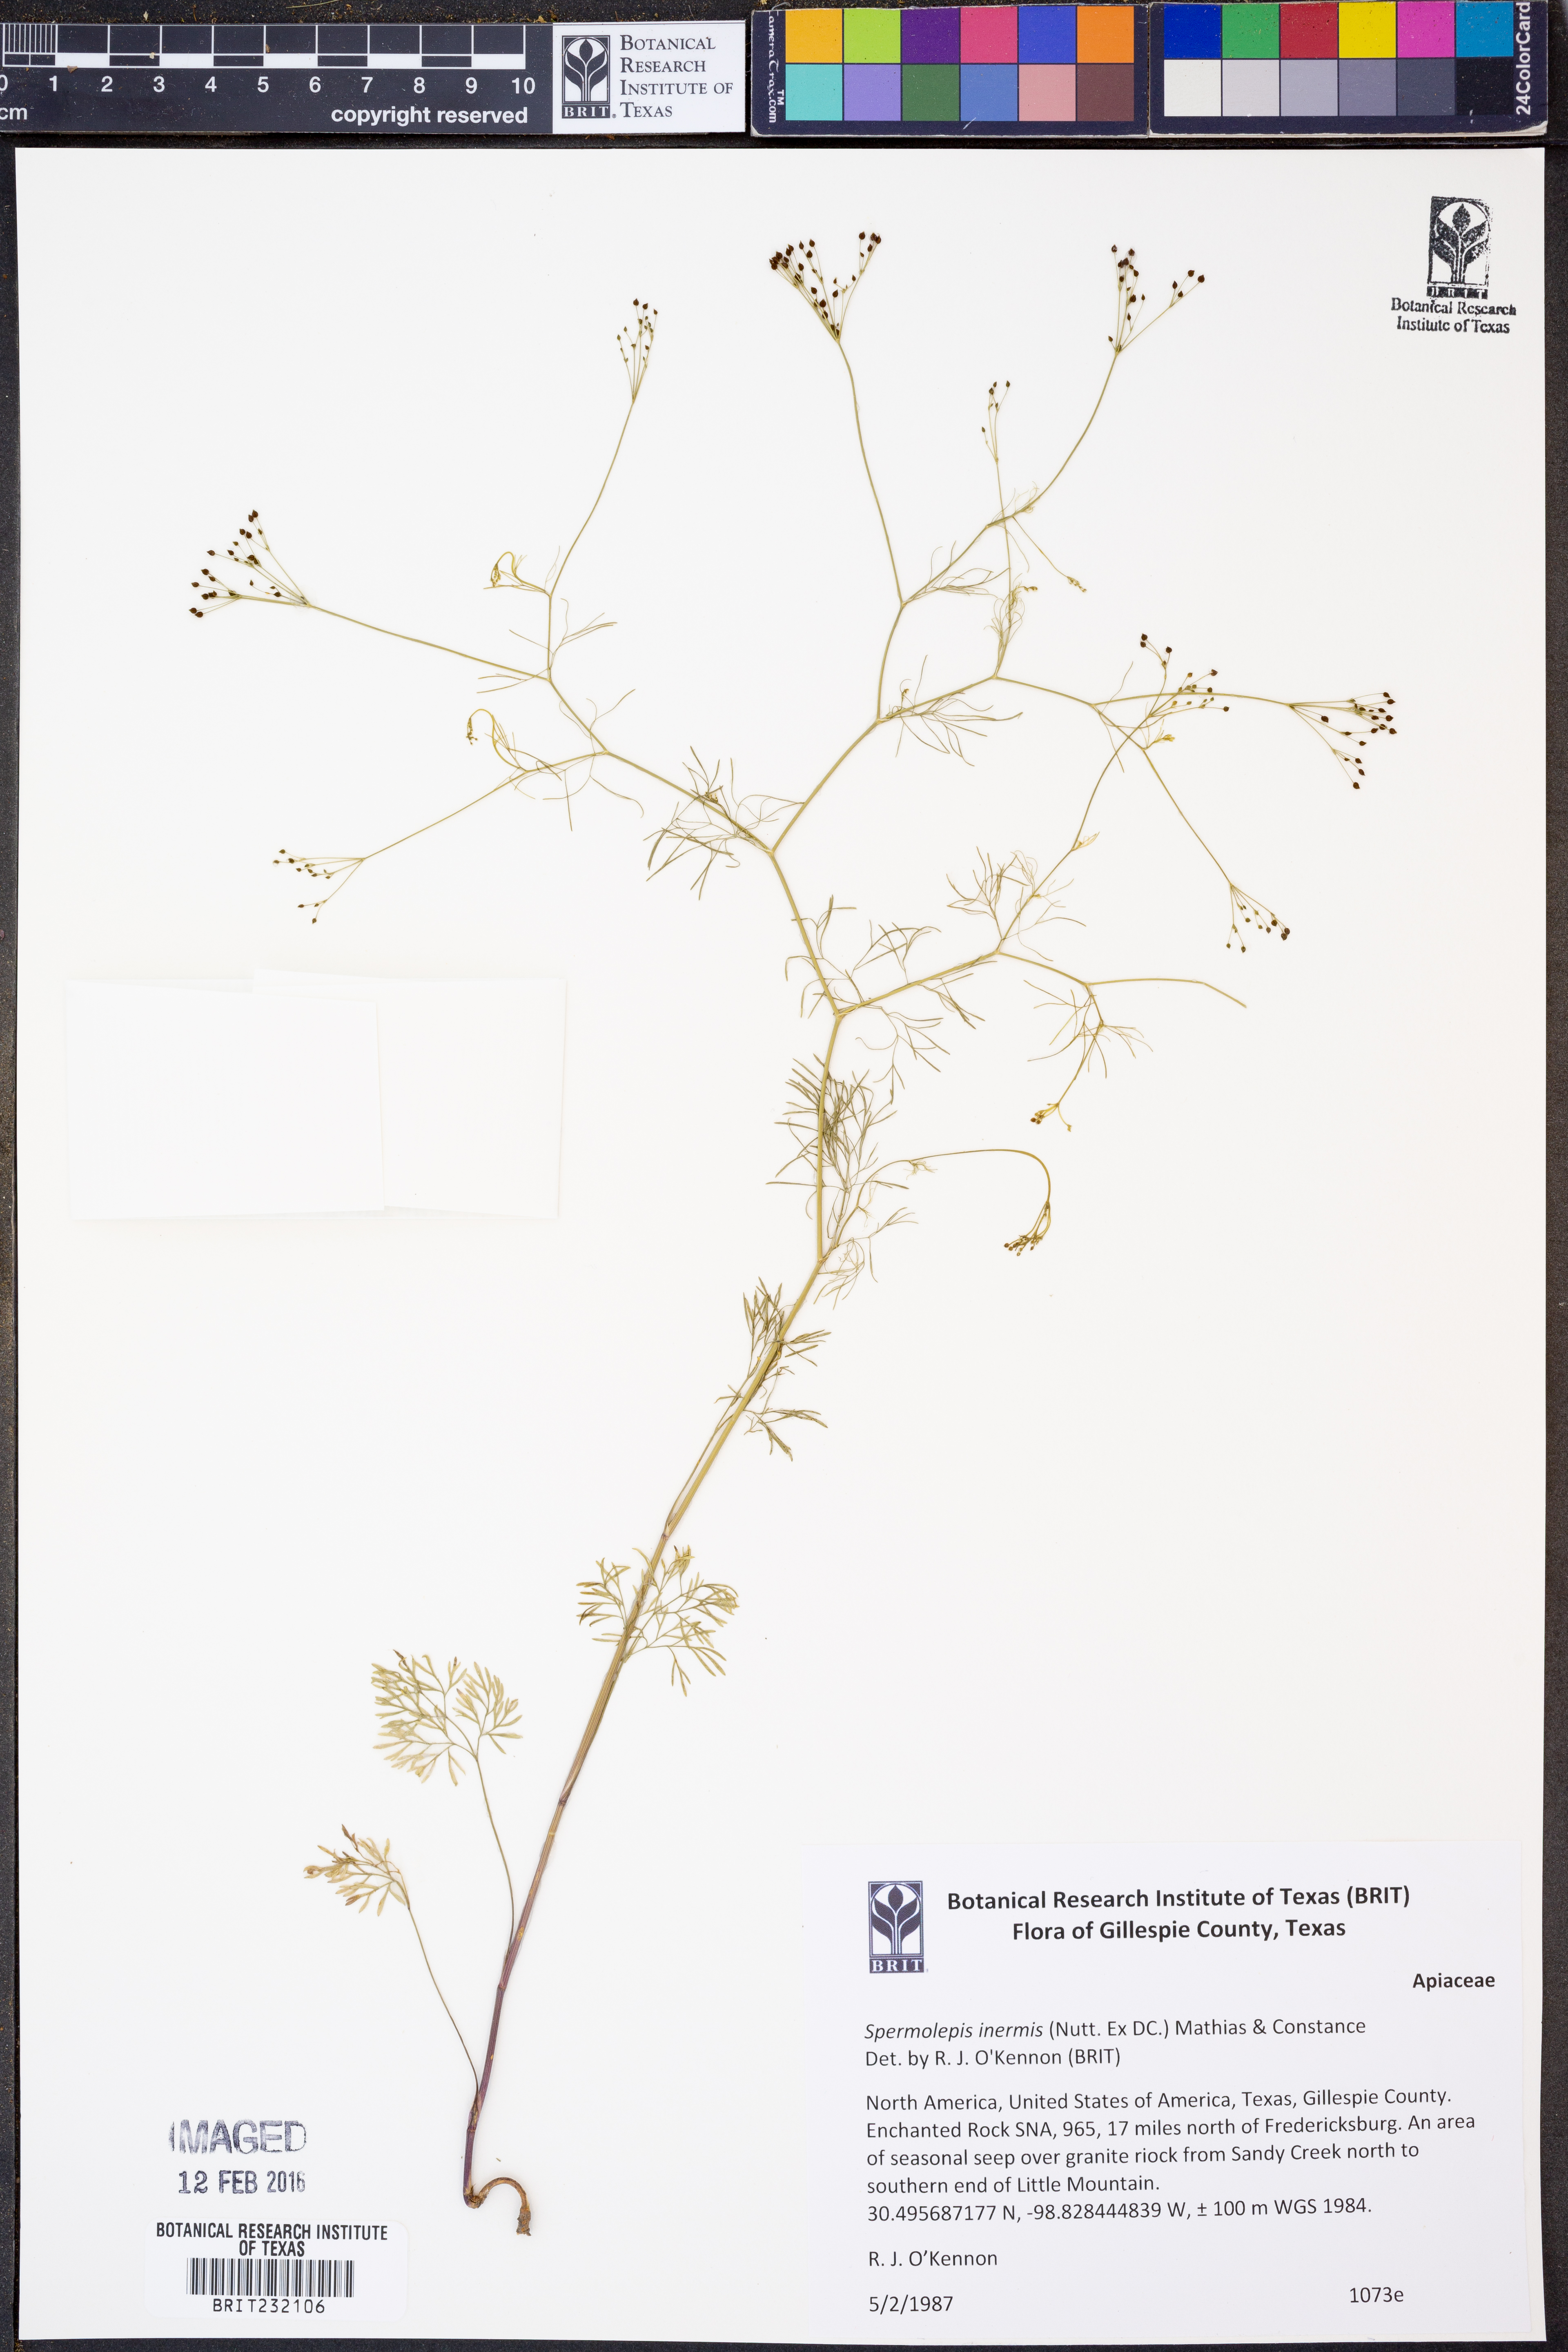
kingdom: Plantae
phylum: Tracheophyta
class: Magnoliopsida
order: Apiales
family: Apiaceae
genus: Spermolepis
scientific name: Spermolepis inermis
